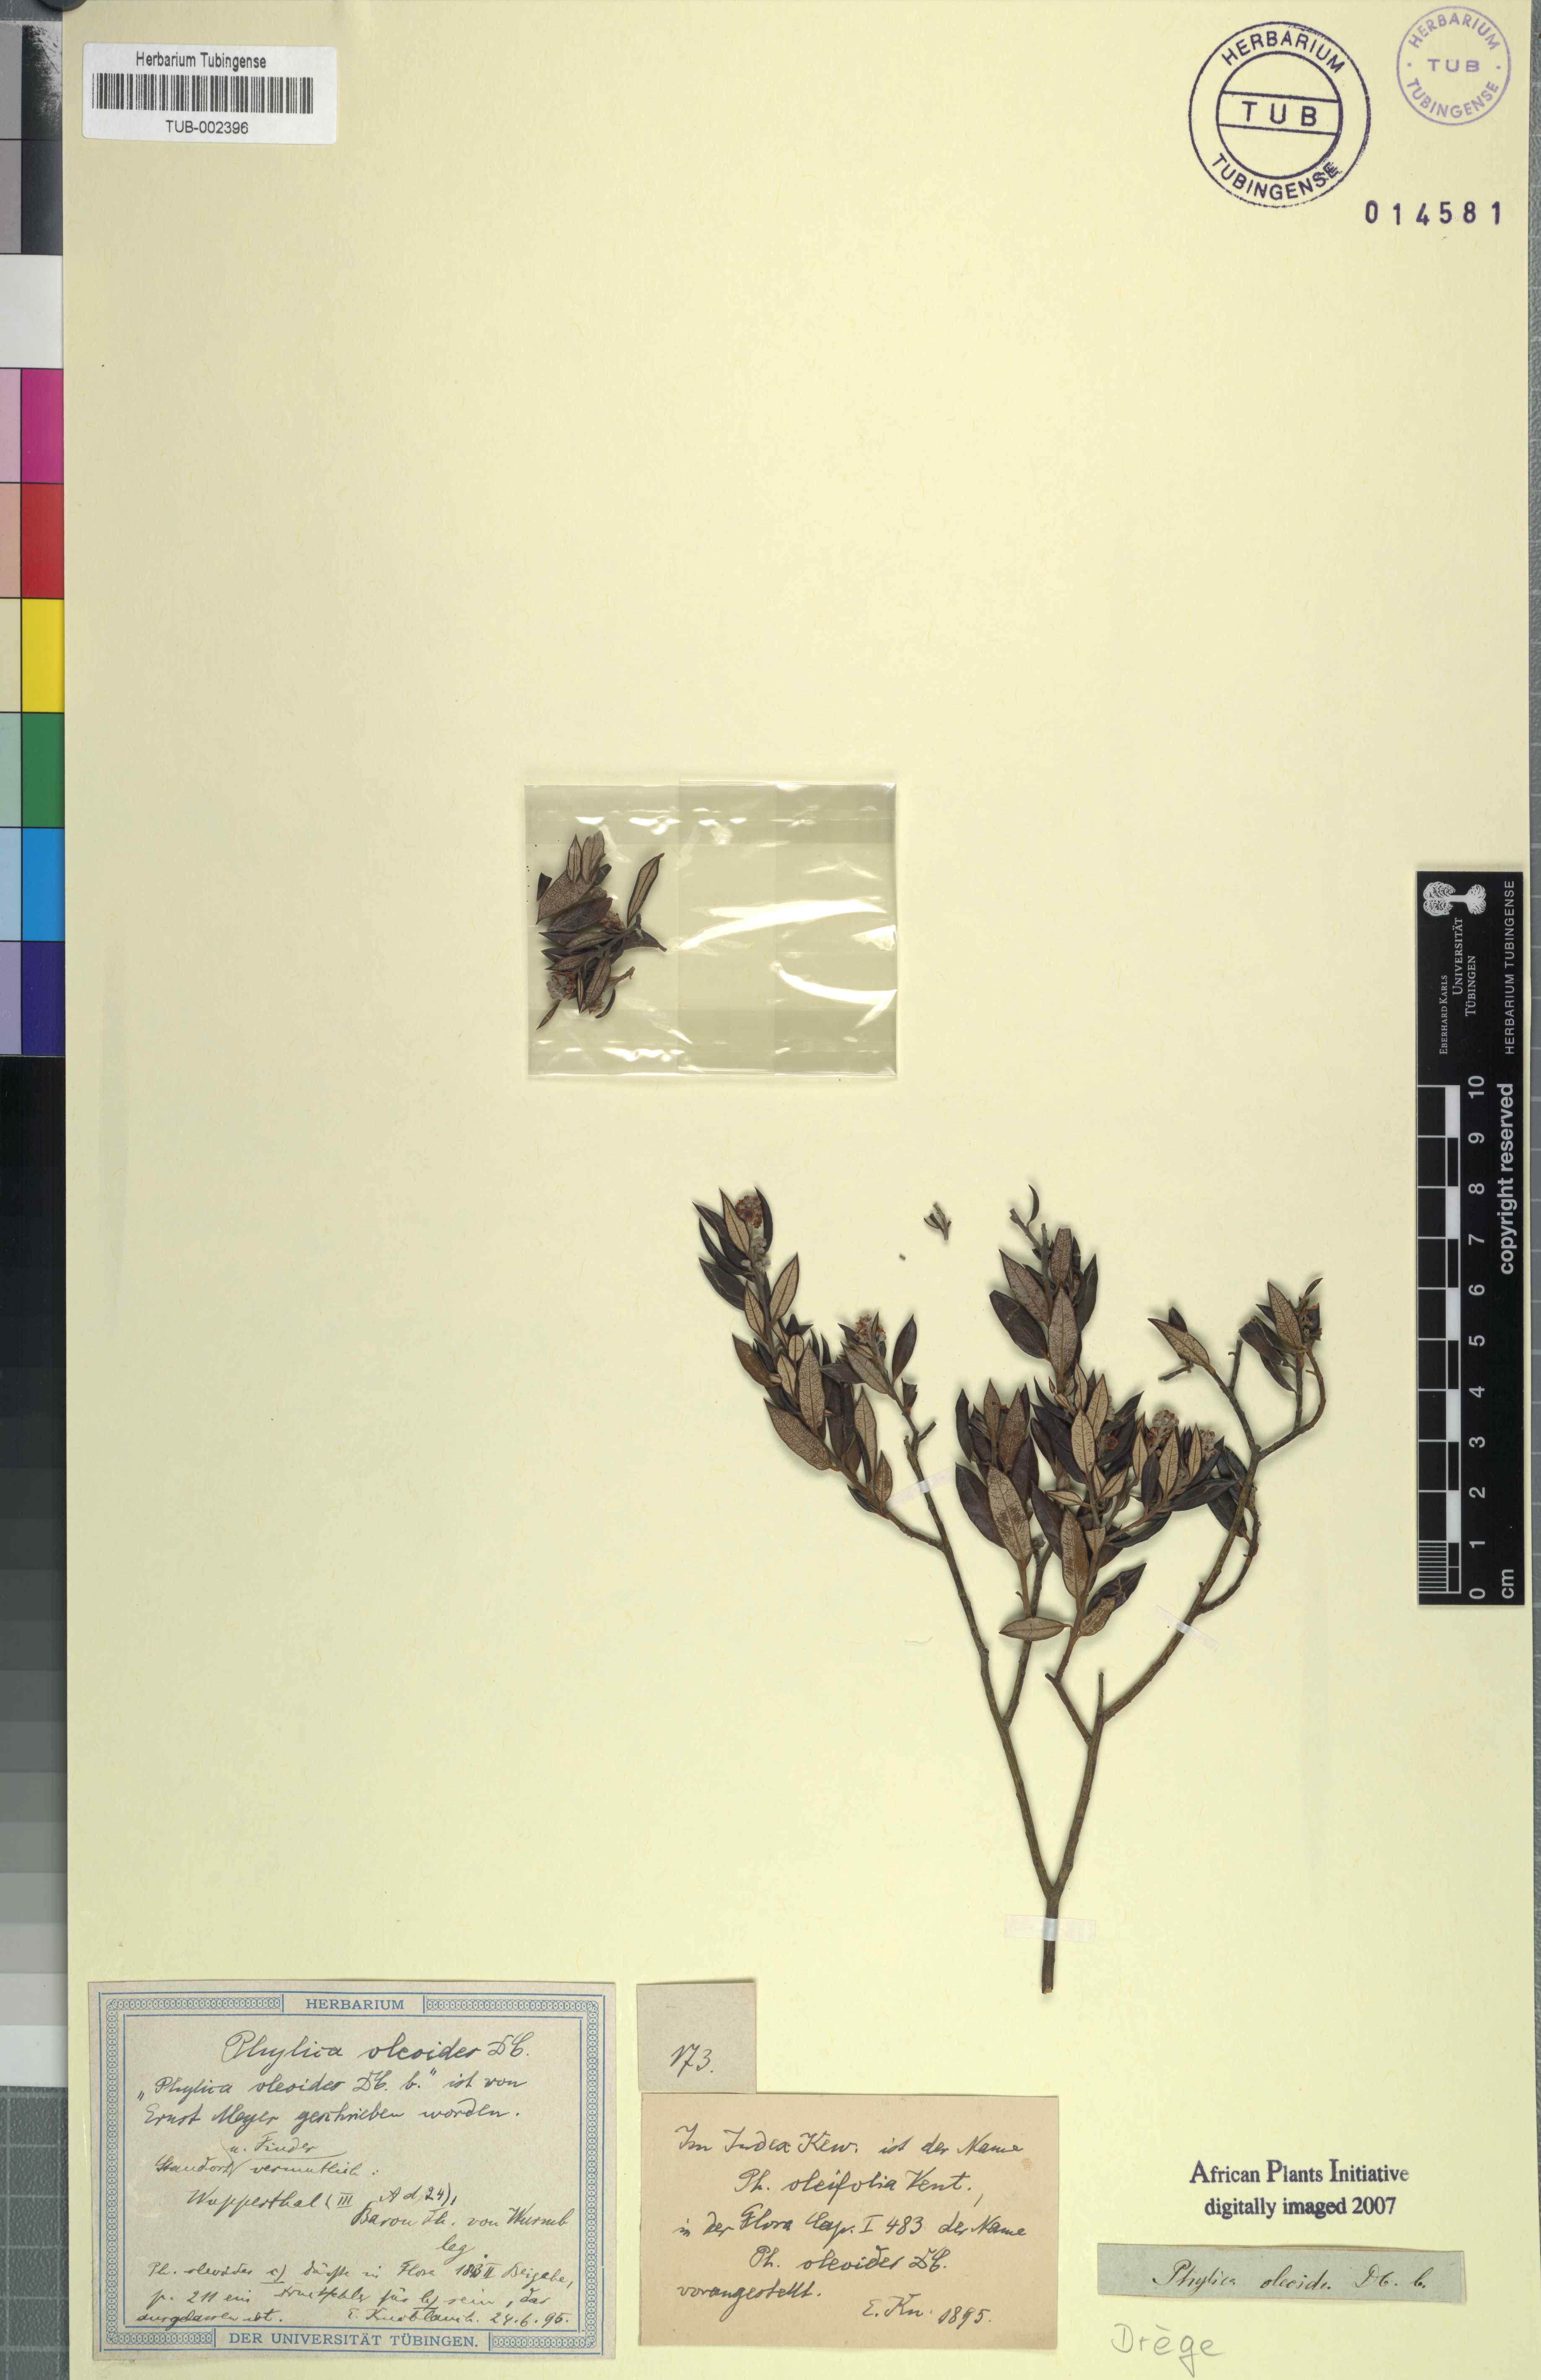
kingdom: Plantae
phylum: Tracheophyta
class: Magnoliopsida
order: Rosales
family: Rhamnaceae
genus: Phylica
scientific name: Phylica oleaefolia
